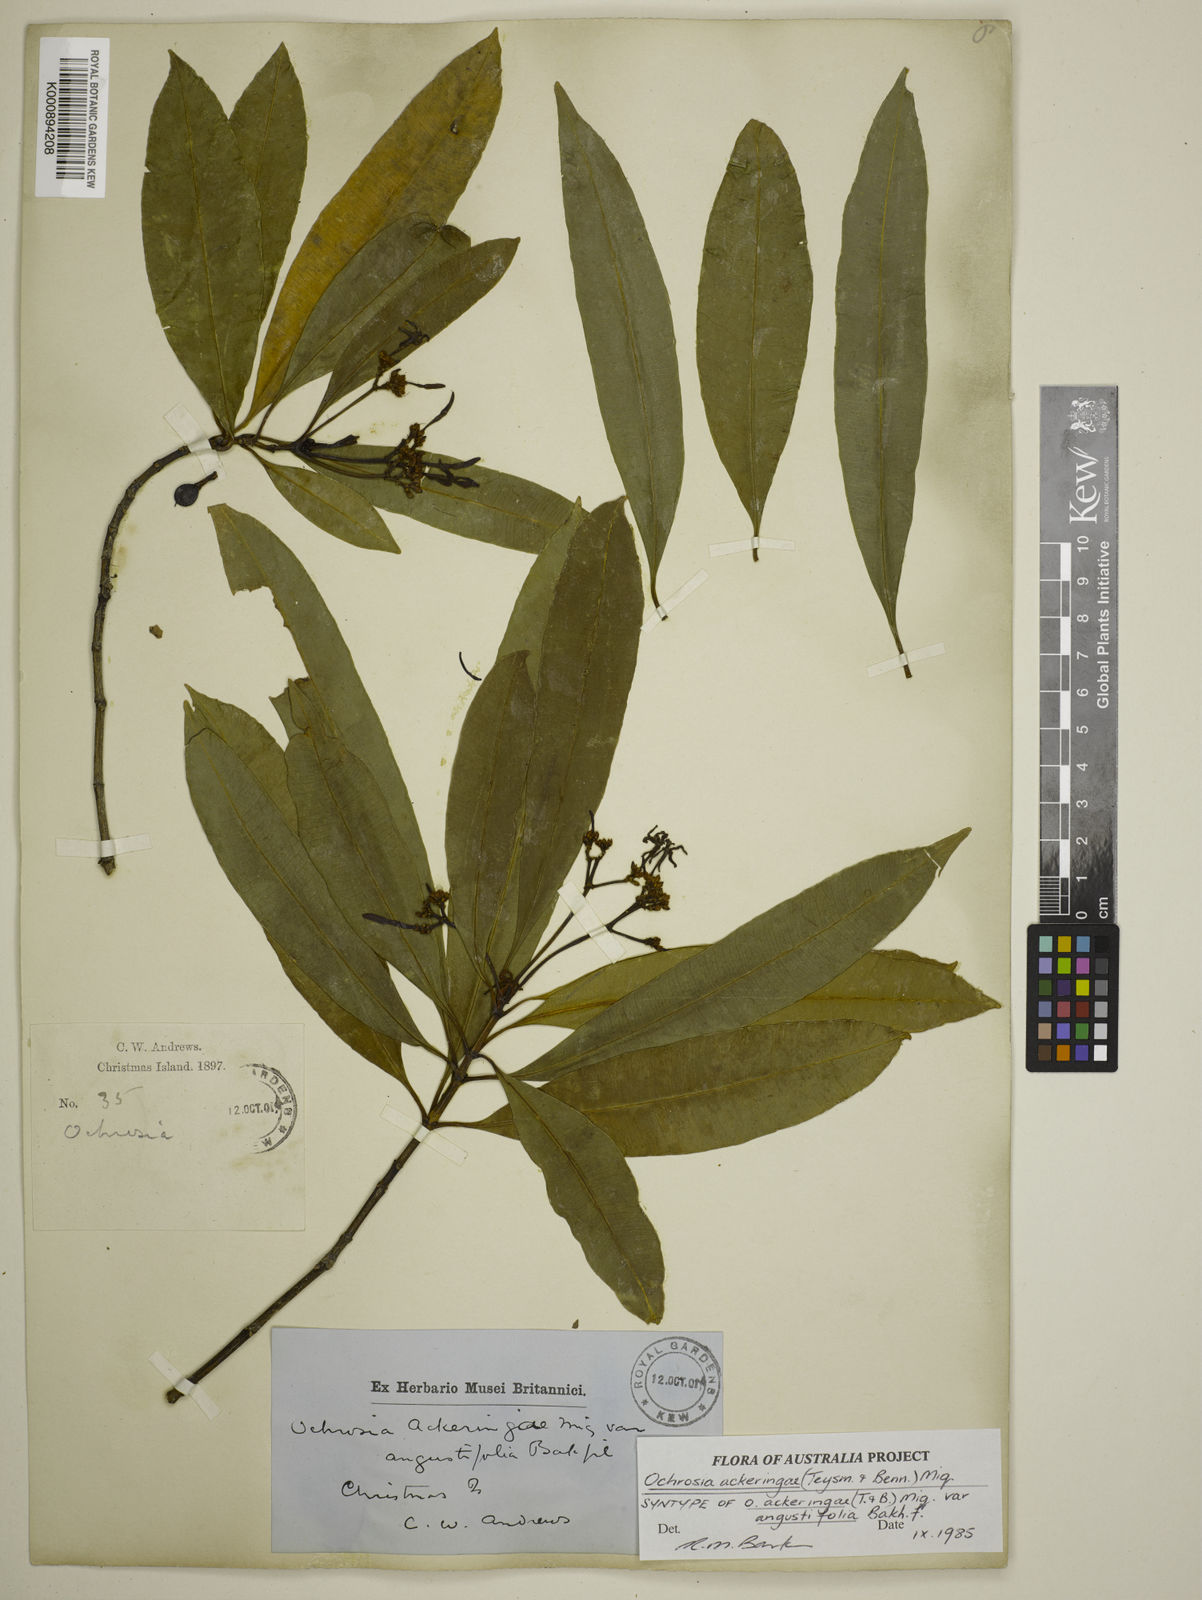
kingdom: Plantae
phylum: Tracheophyta
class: Magnoliopsida
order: Gentianales
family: Apocynaceae
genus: Ochrosia
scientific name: Ochrosia ackeringae
